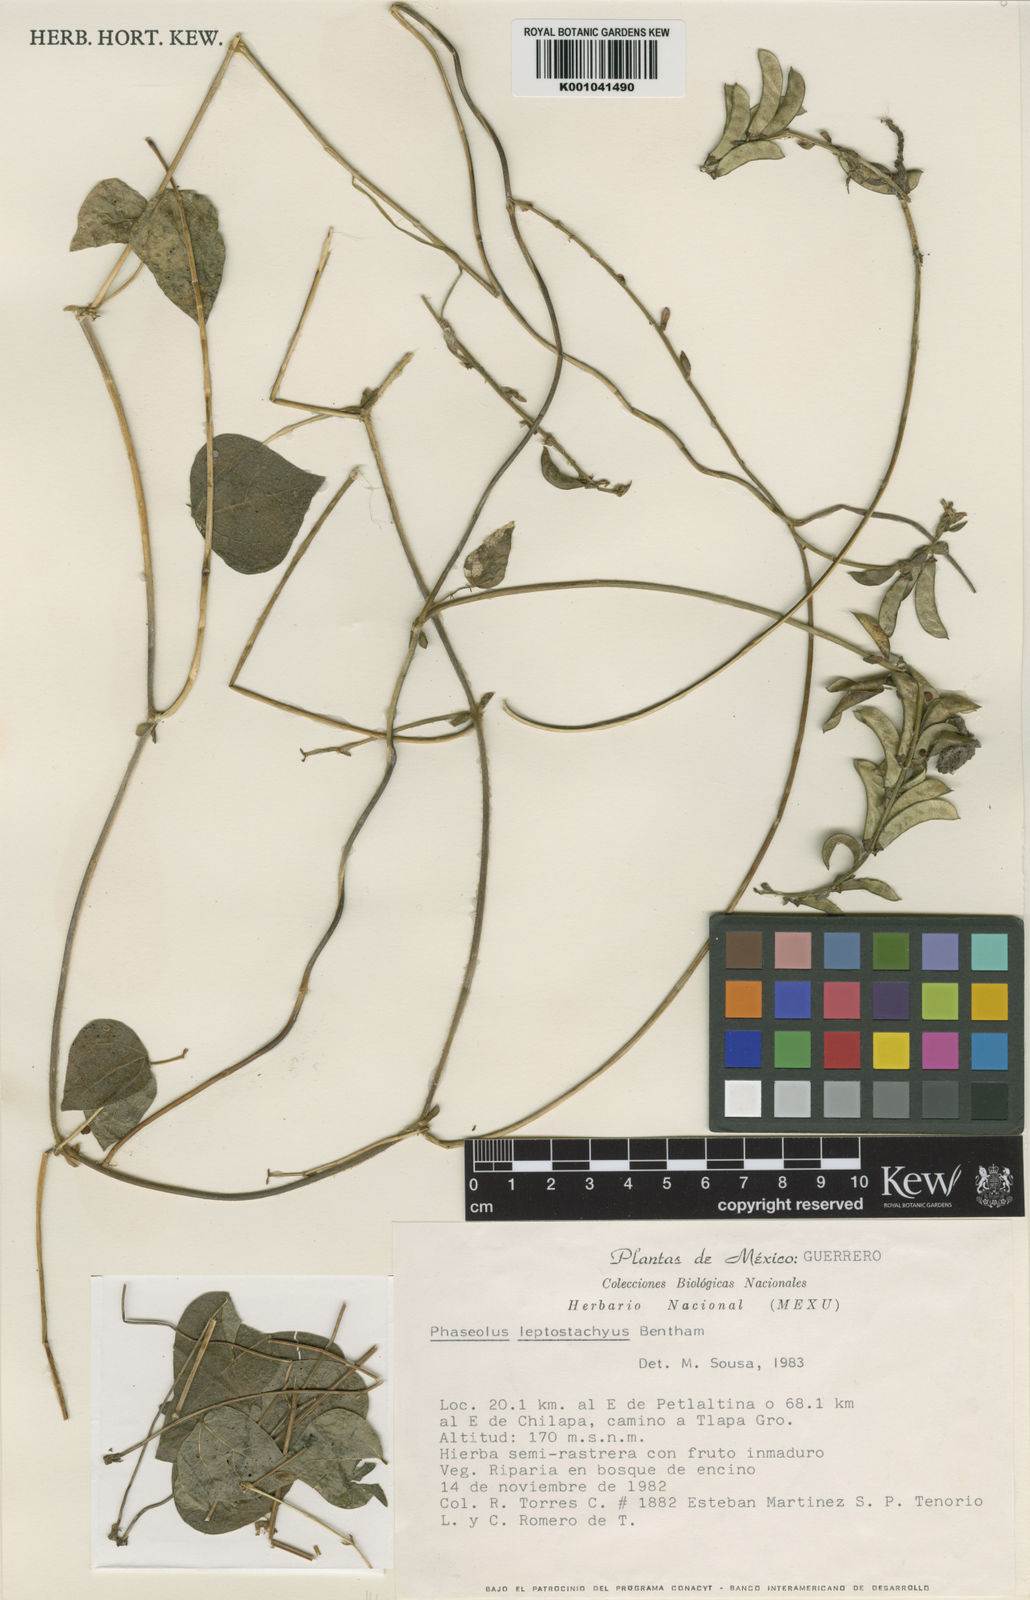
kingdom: Plantae
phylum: Tracheophyta
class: Magnoliopsida
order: Fabales
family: Fabaceae
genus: Phaseolus
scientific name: Phaseolus
